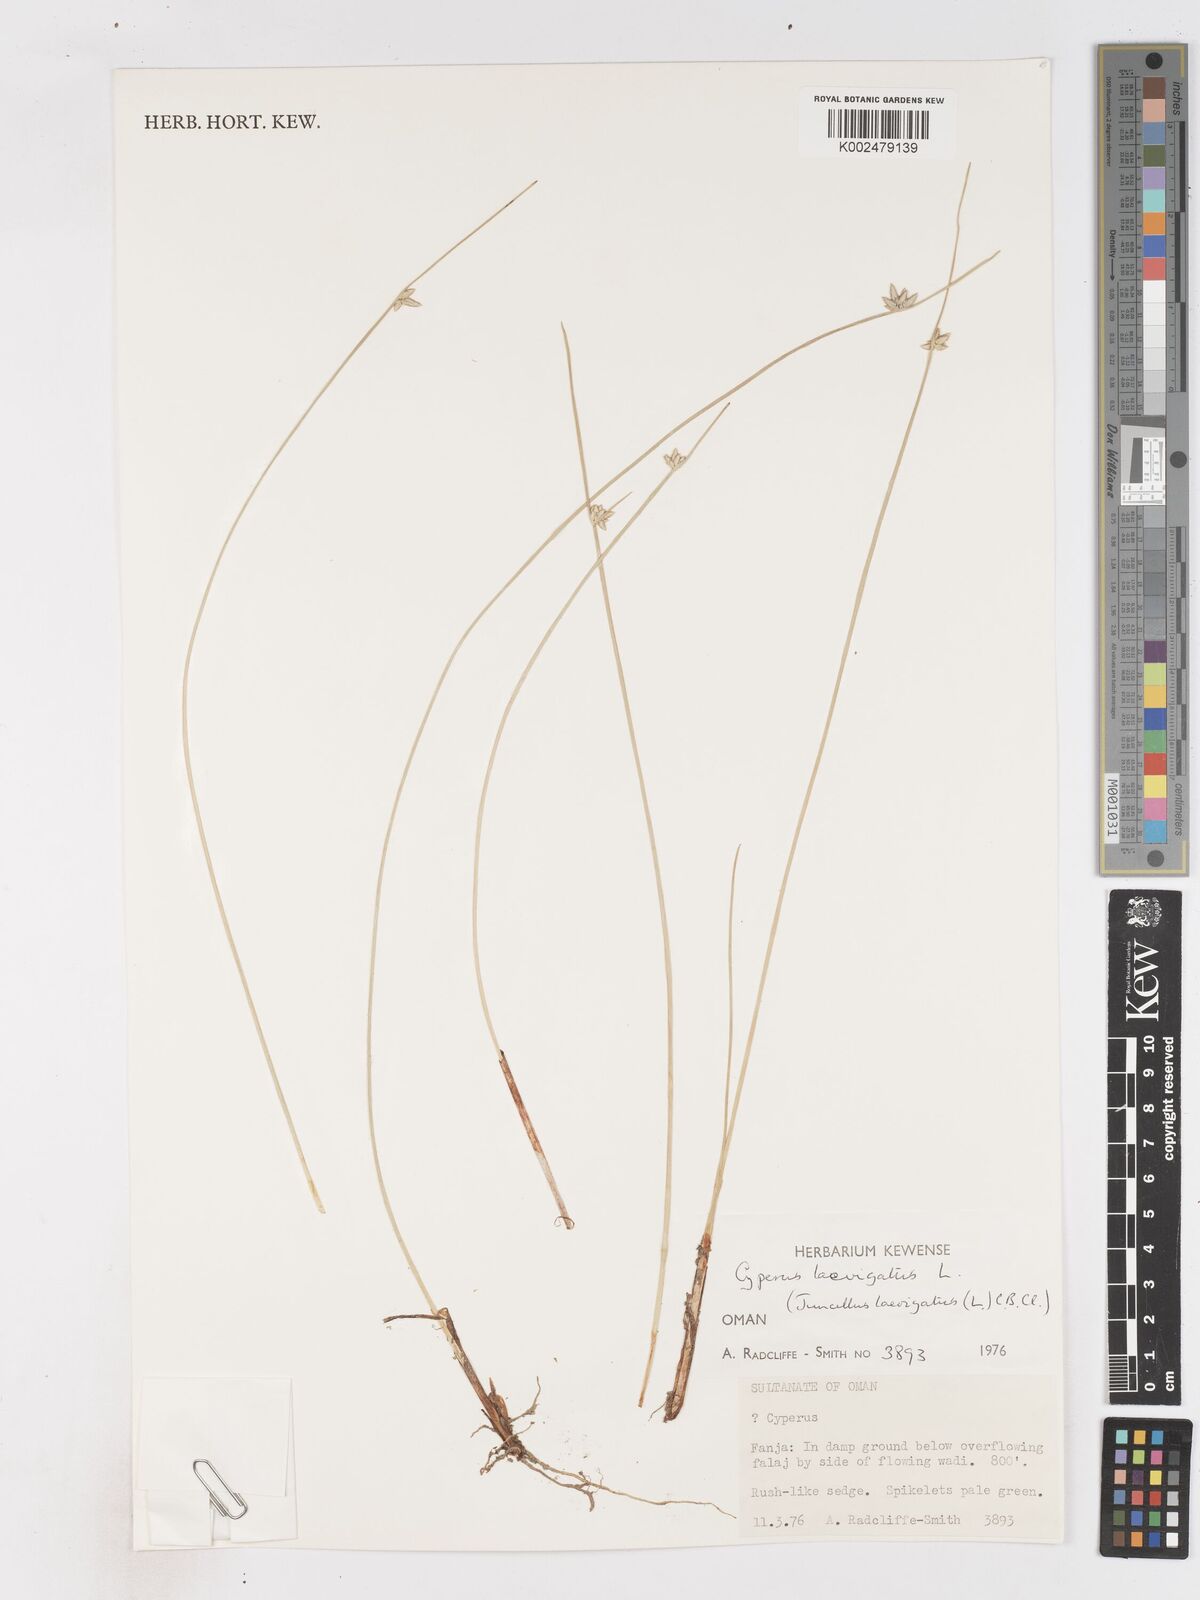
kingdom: Plantae
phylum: Tracheophyta
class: Liliopsida
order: Poales
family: Cyperaceae
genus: Cyperus
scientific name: Cyperus laevigatus
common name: Smooth flat sedge
